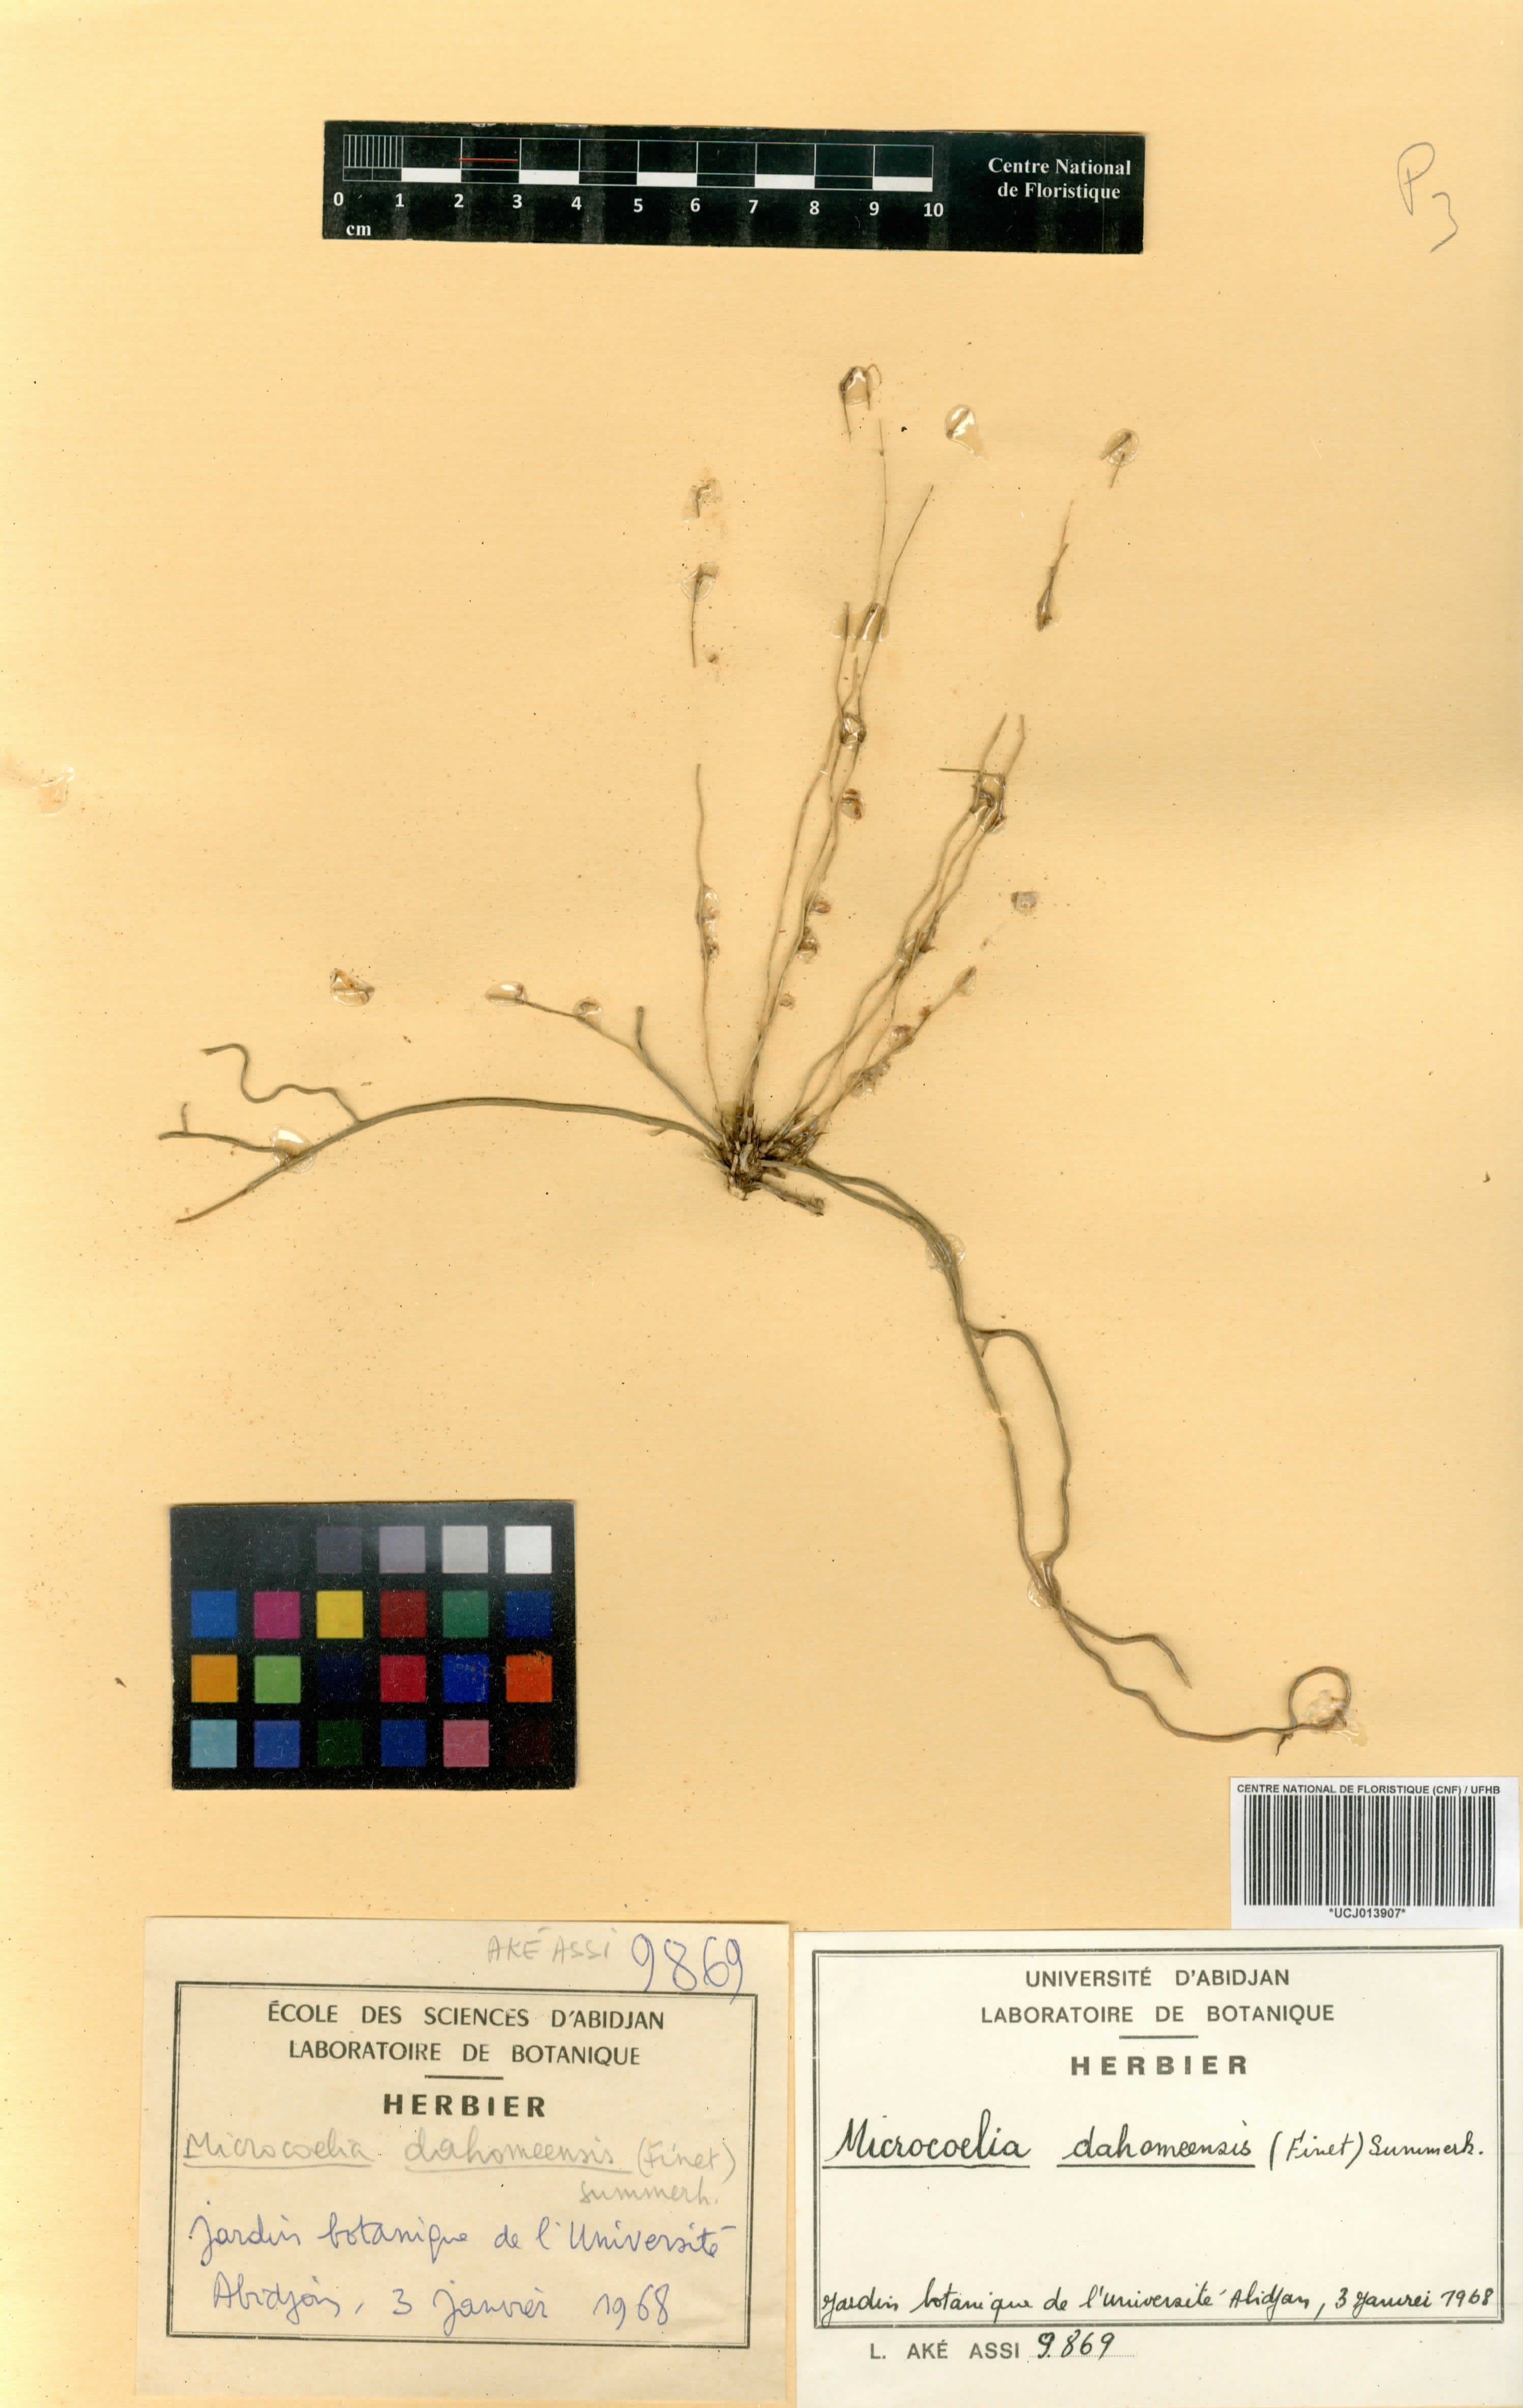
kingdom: Plantae
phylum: Tracheophyta
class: Liliopsida
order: Asparagales
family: Orchidaceae
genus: Microcoelia
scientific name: Microcoelia konduensis
